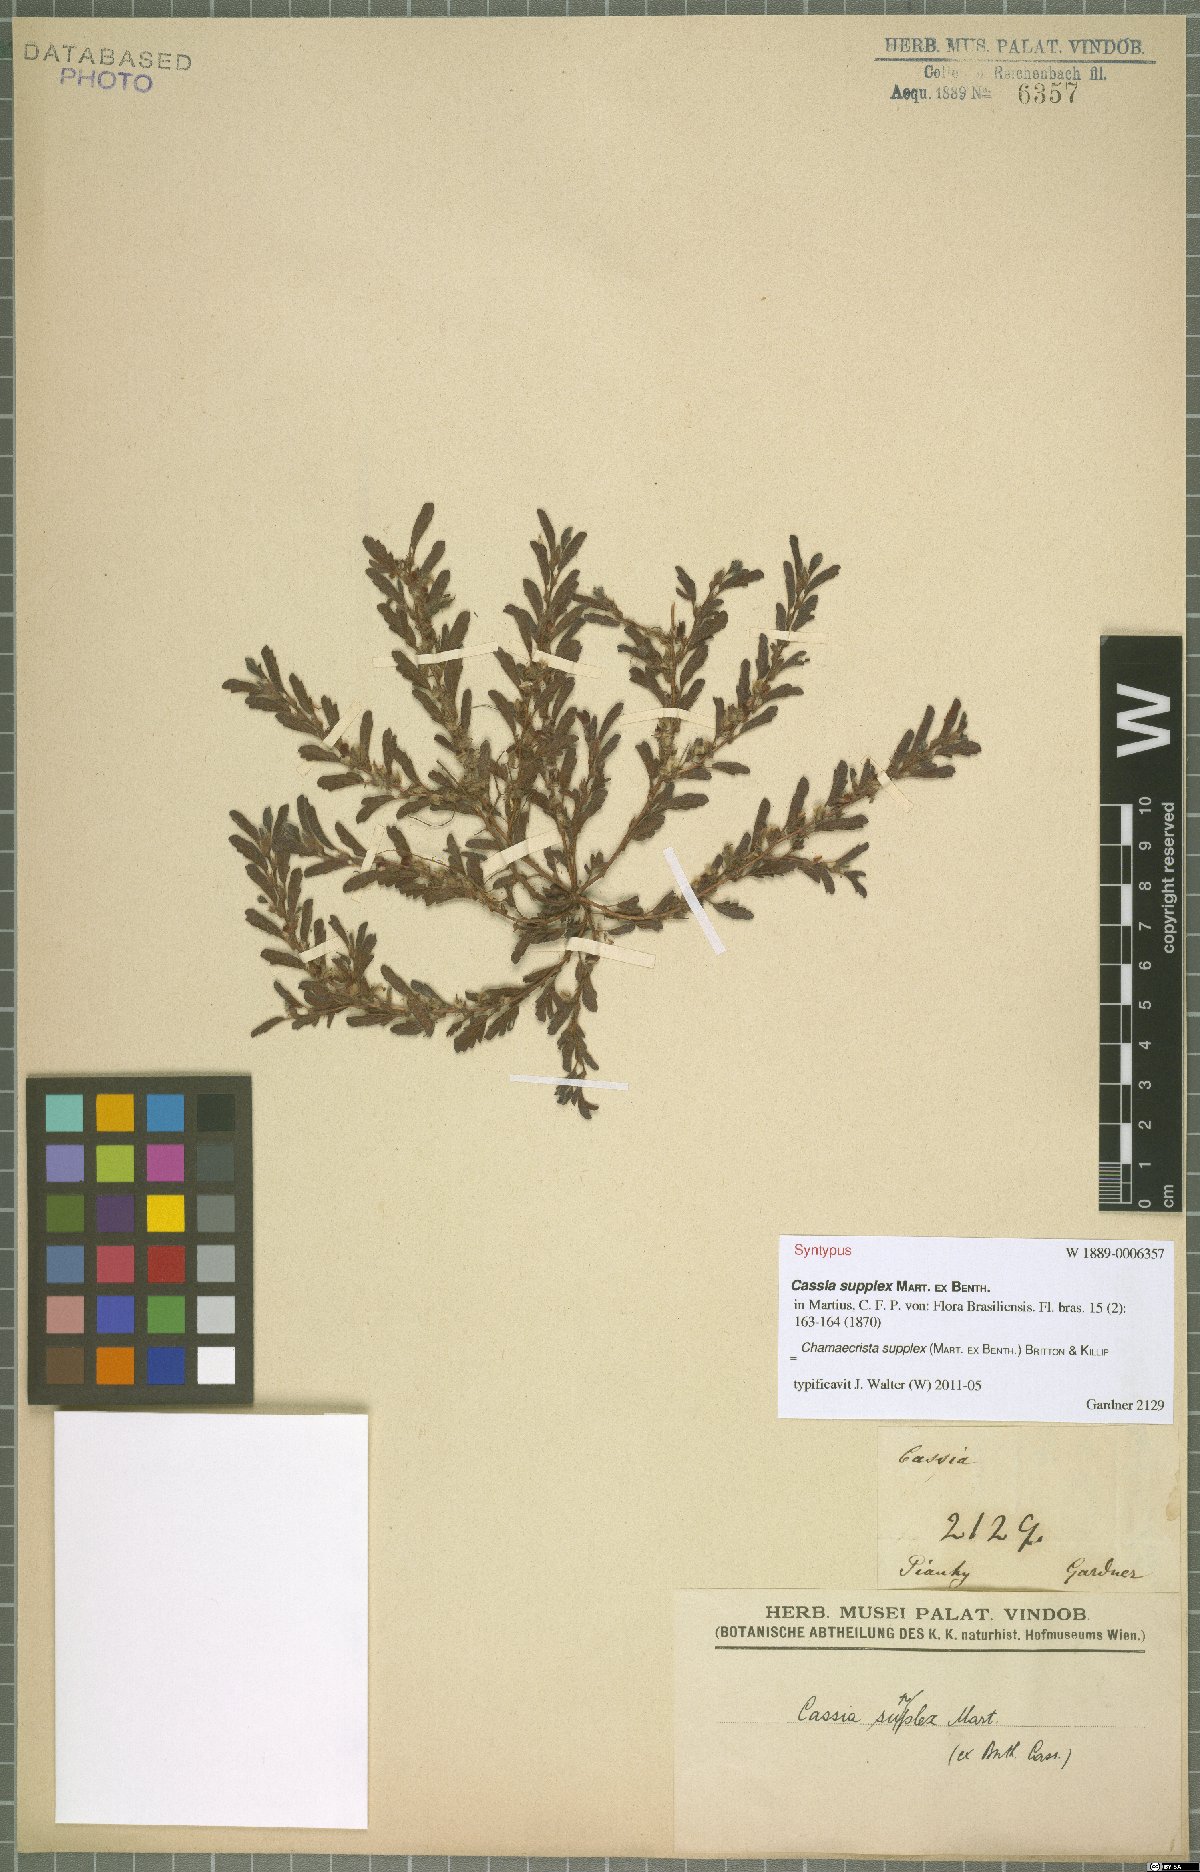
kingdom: Plantae
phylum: Tracheophyta
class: Magnoliopsida
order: Fabales
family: Fabaceae
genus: Chamaecrista
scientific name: Chamaecrista supplex
